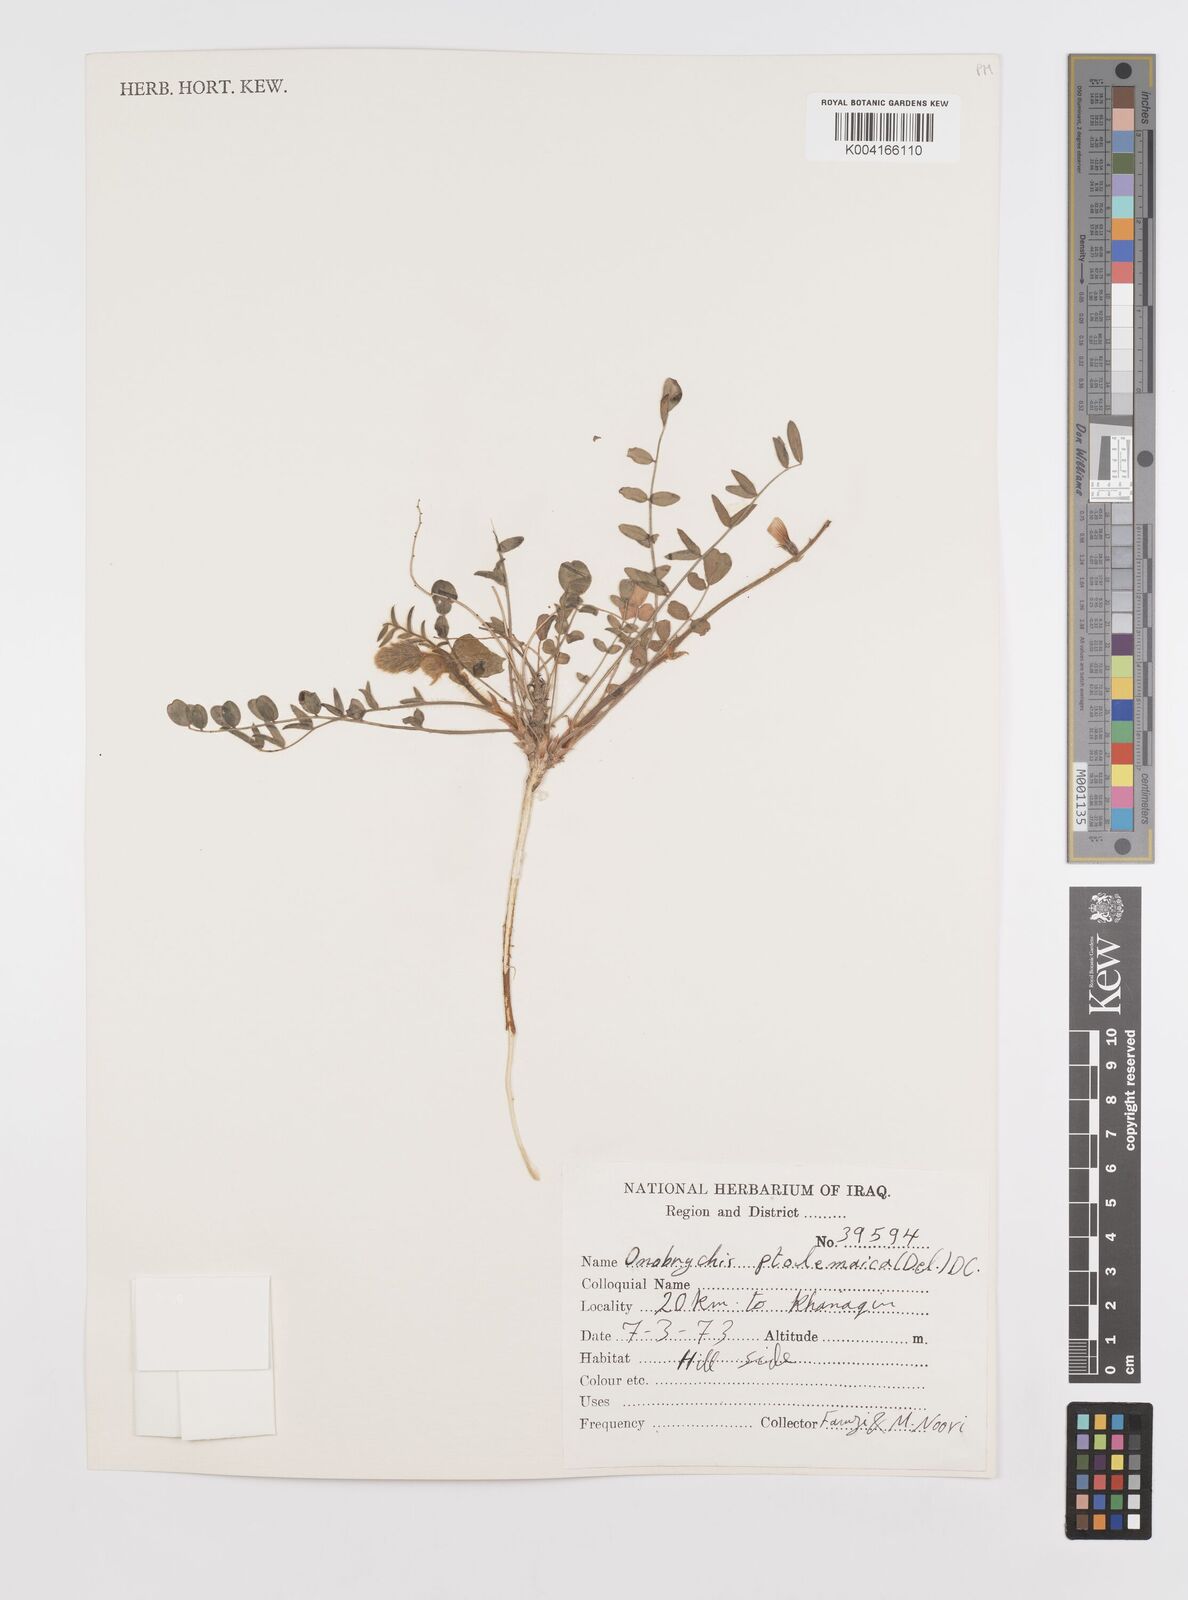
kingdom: Plantae
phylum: Tracheophyta
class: Magnoliopsida
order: Fabales
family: Fabaceae
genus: Onobrychis
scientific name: Onobrychis ptolemaica
